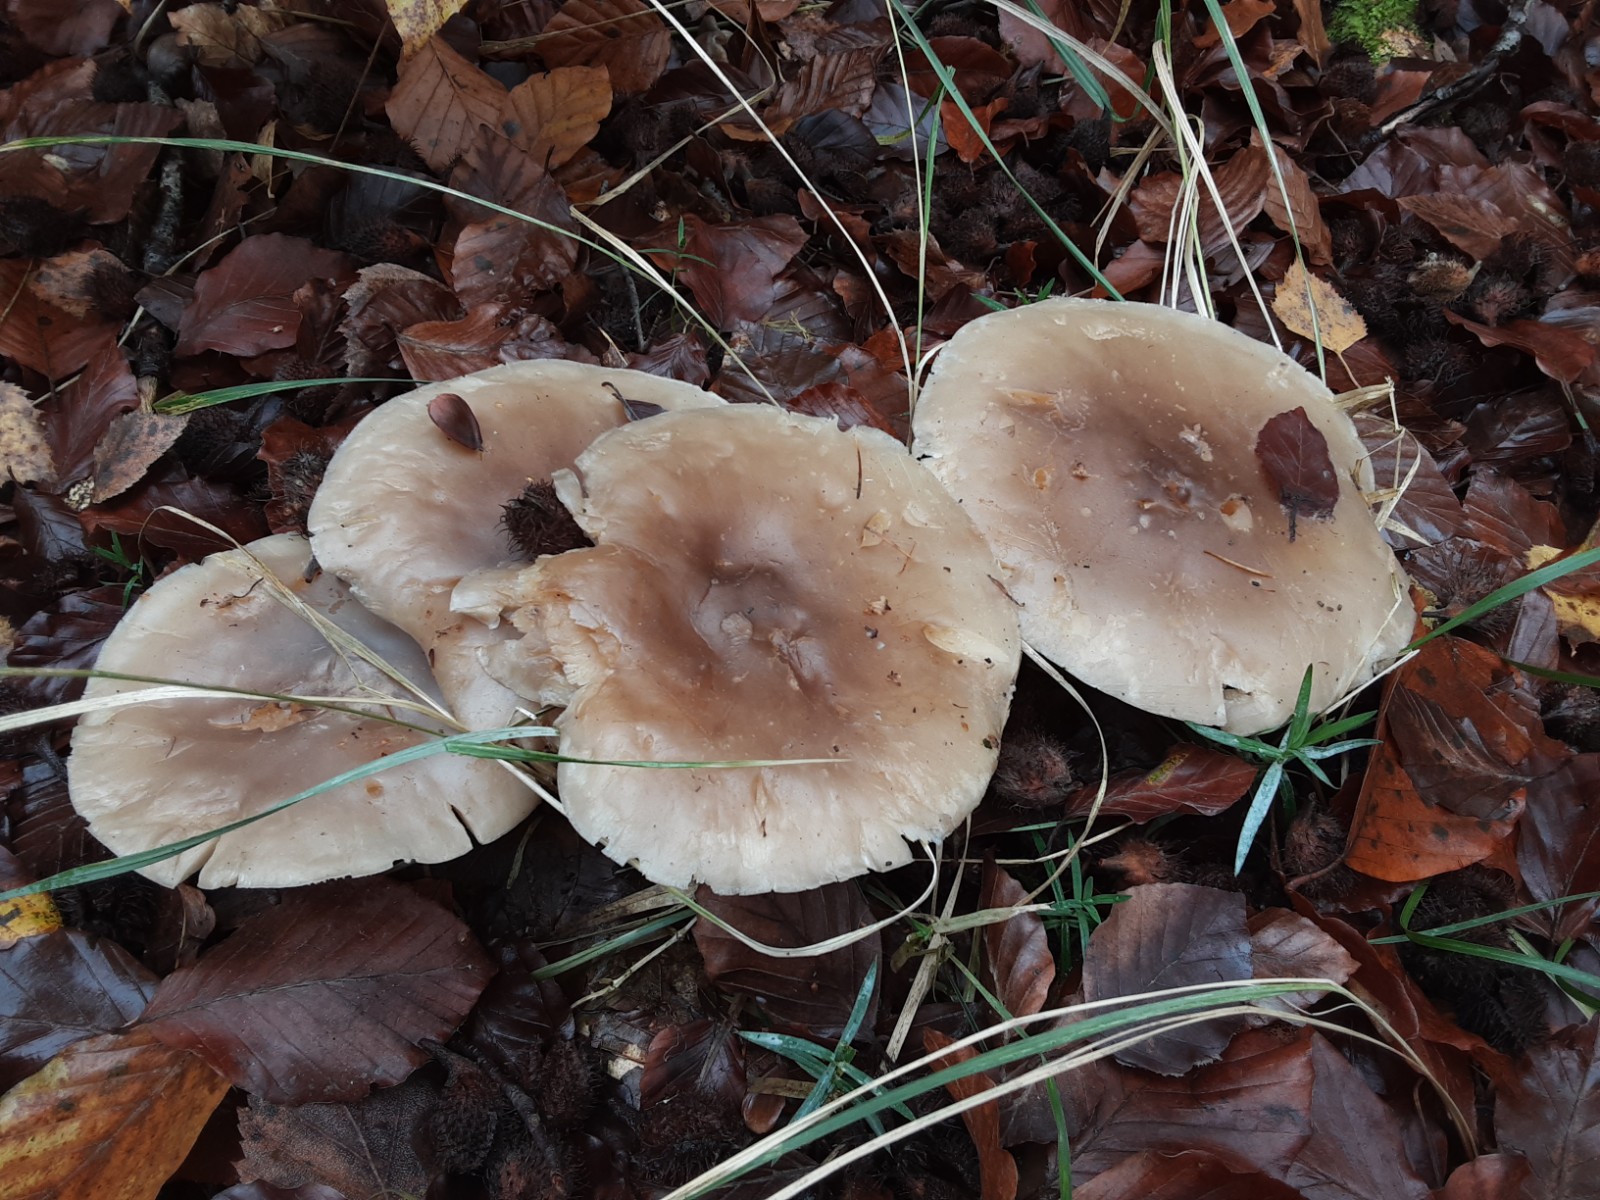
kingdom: Fungi
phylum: Basidiomycota
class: Agaricomycetes
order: Agaricales
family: Tricholomataceae
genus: Clitocybe
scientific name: Clitocybe nebularis
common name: tåge-tragthat
